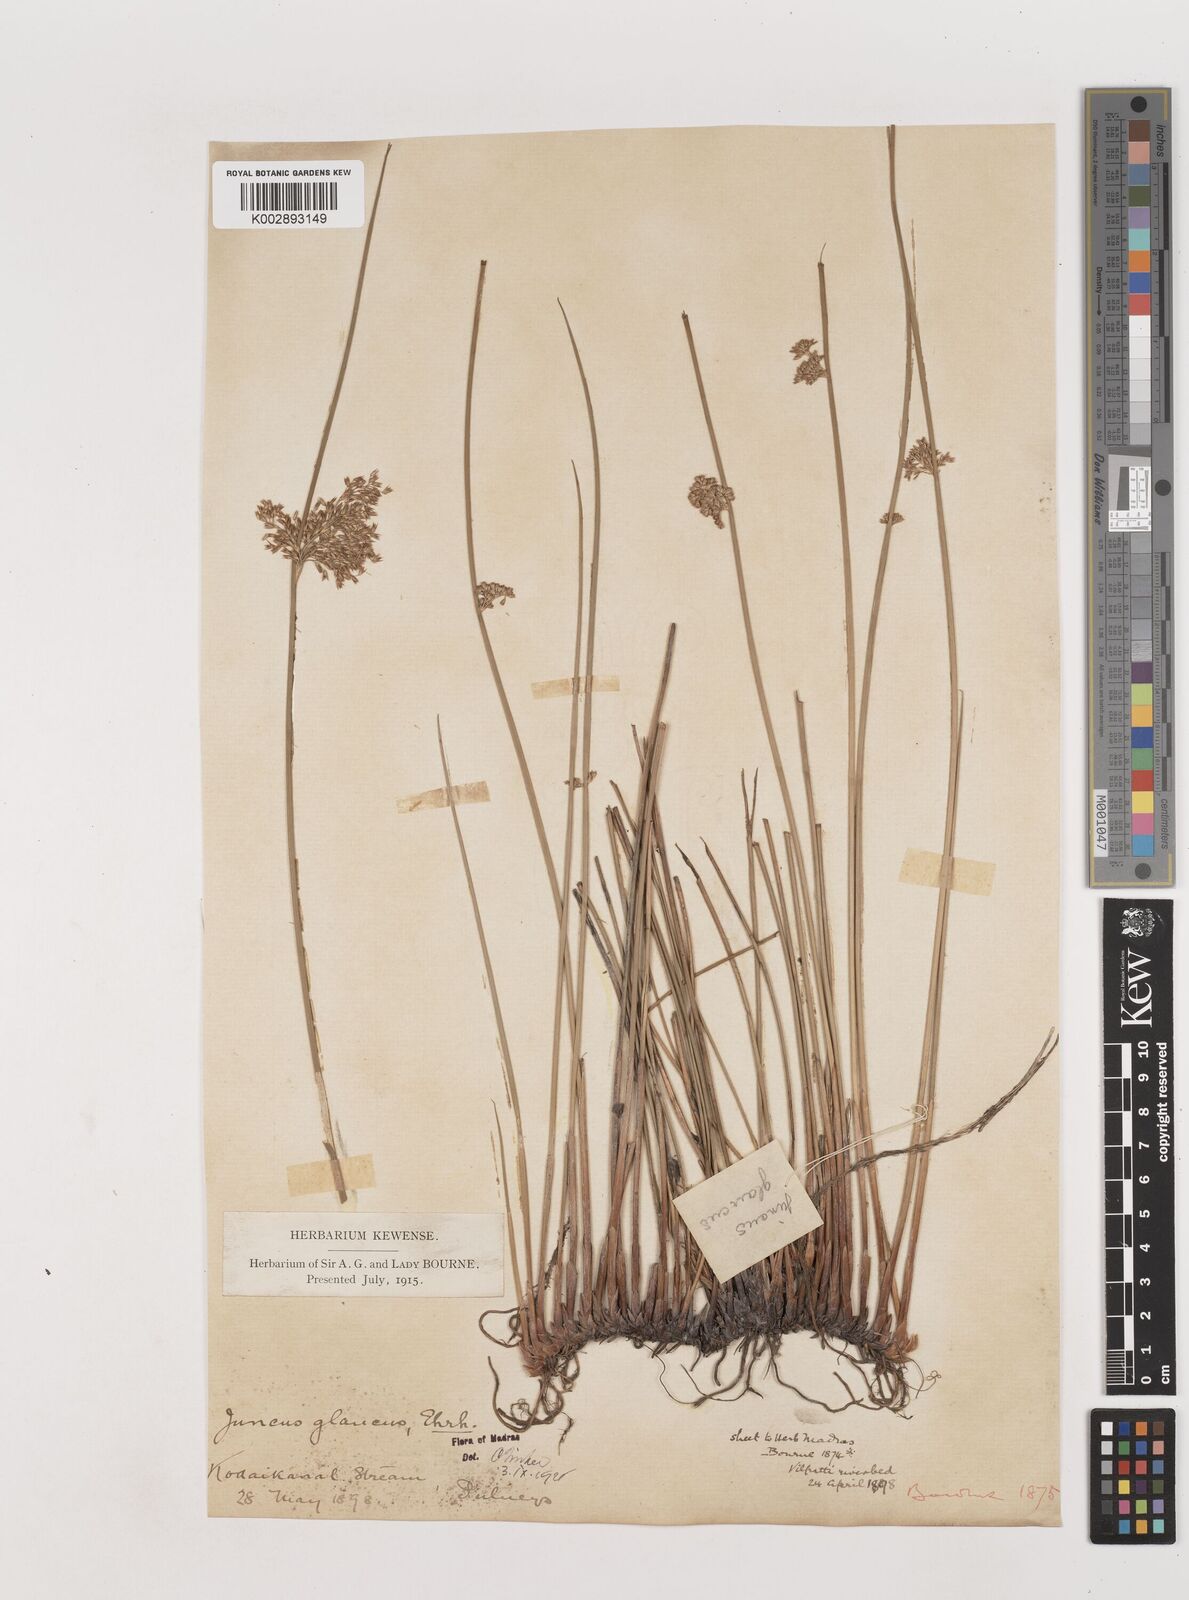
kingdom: Plantae
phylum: Tracheophyta
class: Liliopsida
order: Poales
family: Juncaceae
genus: Juncus
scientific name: Juncus effusus
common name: Soft rush
